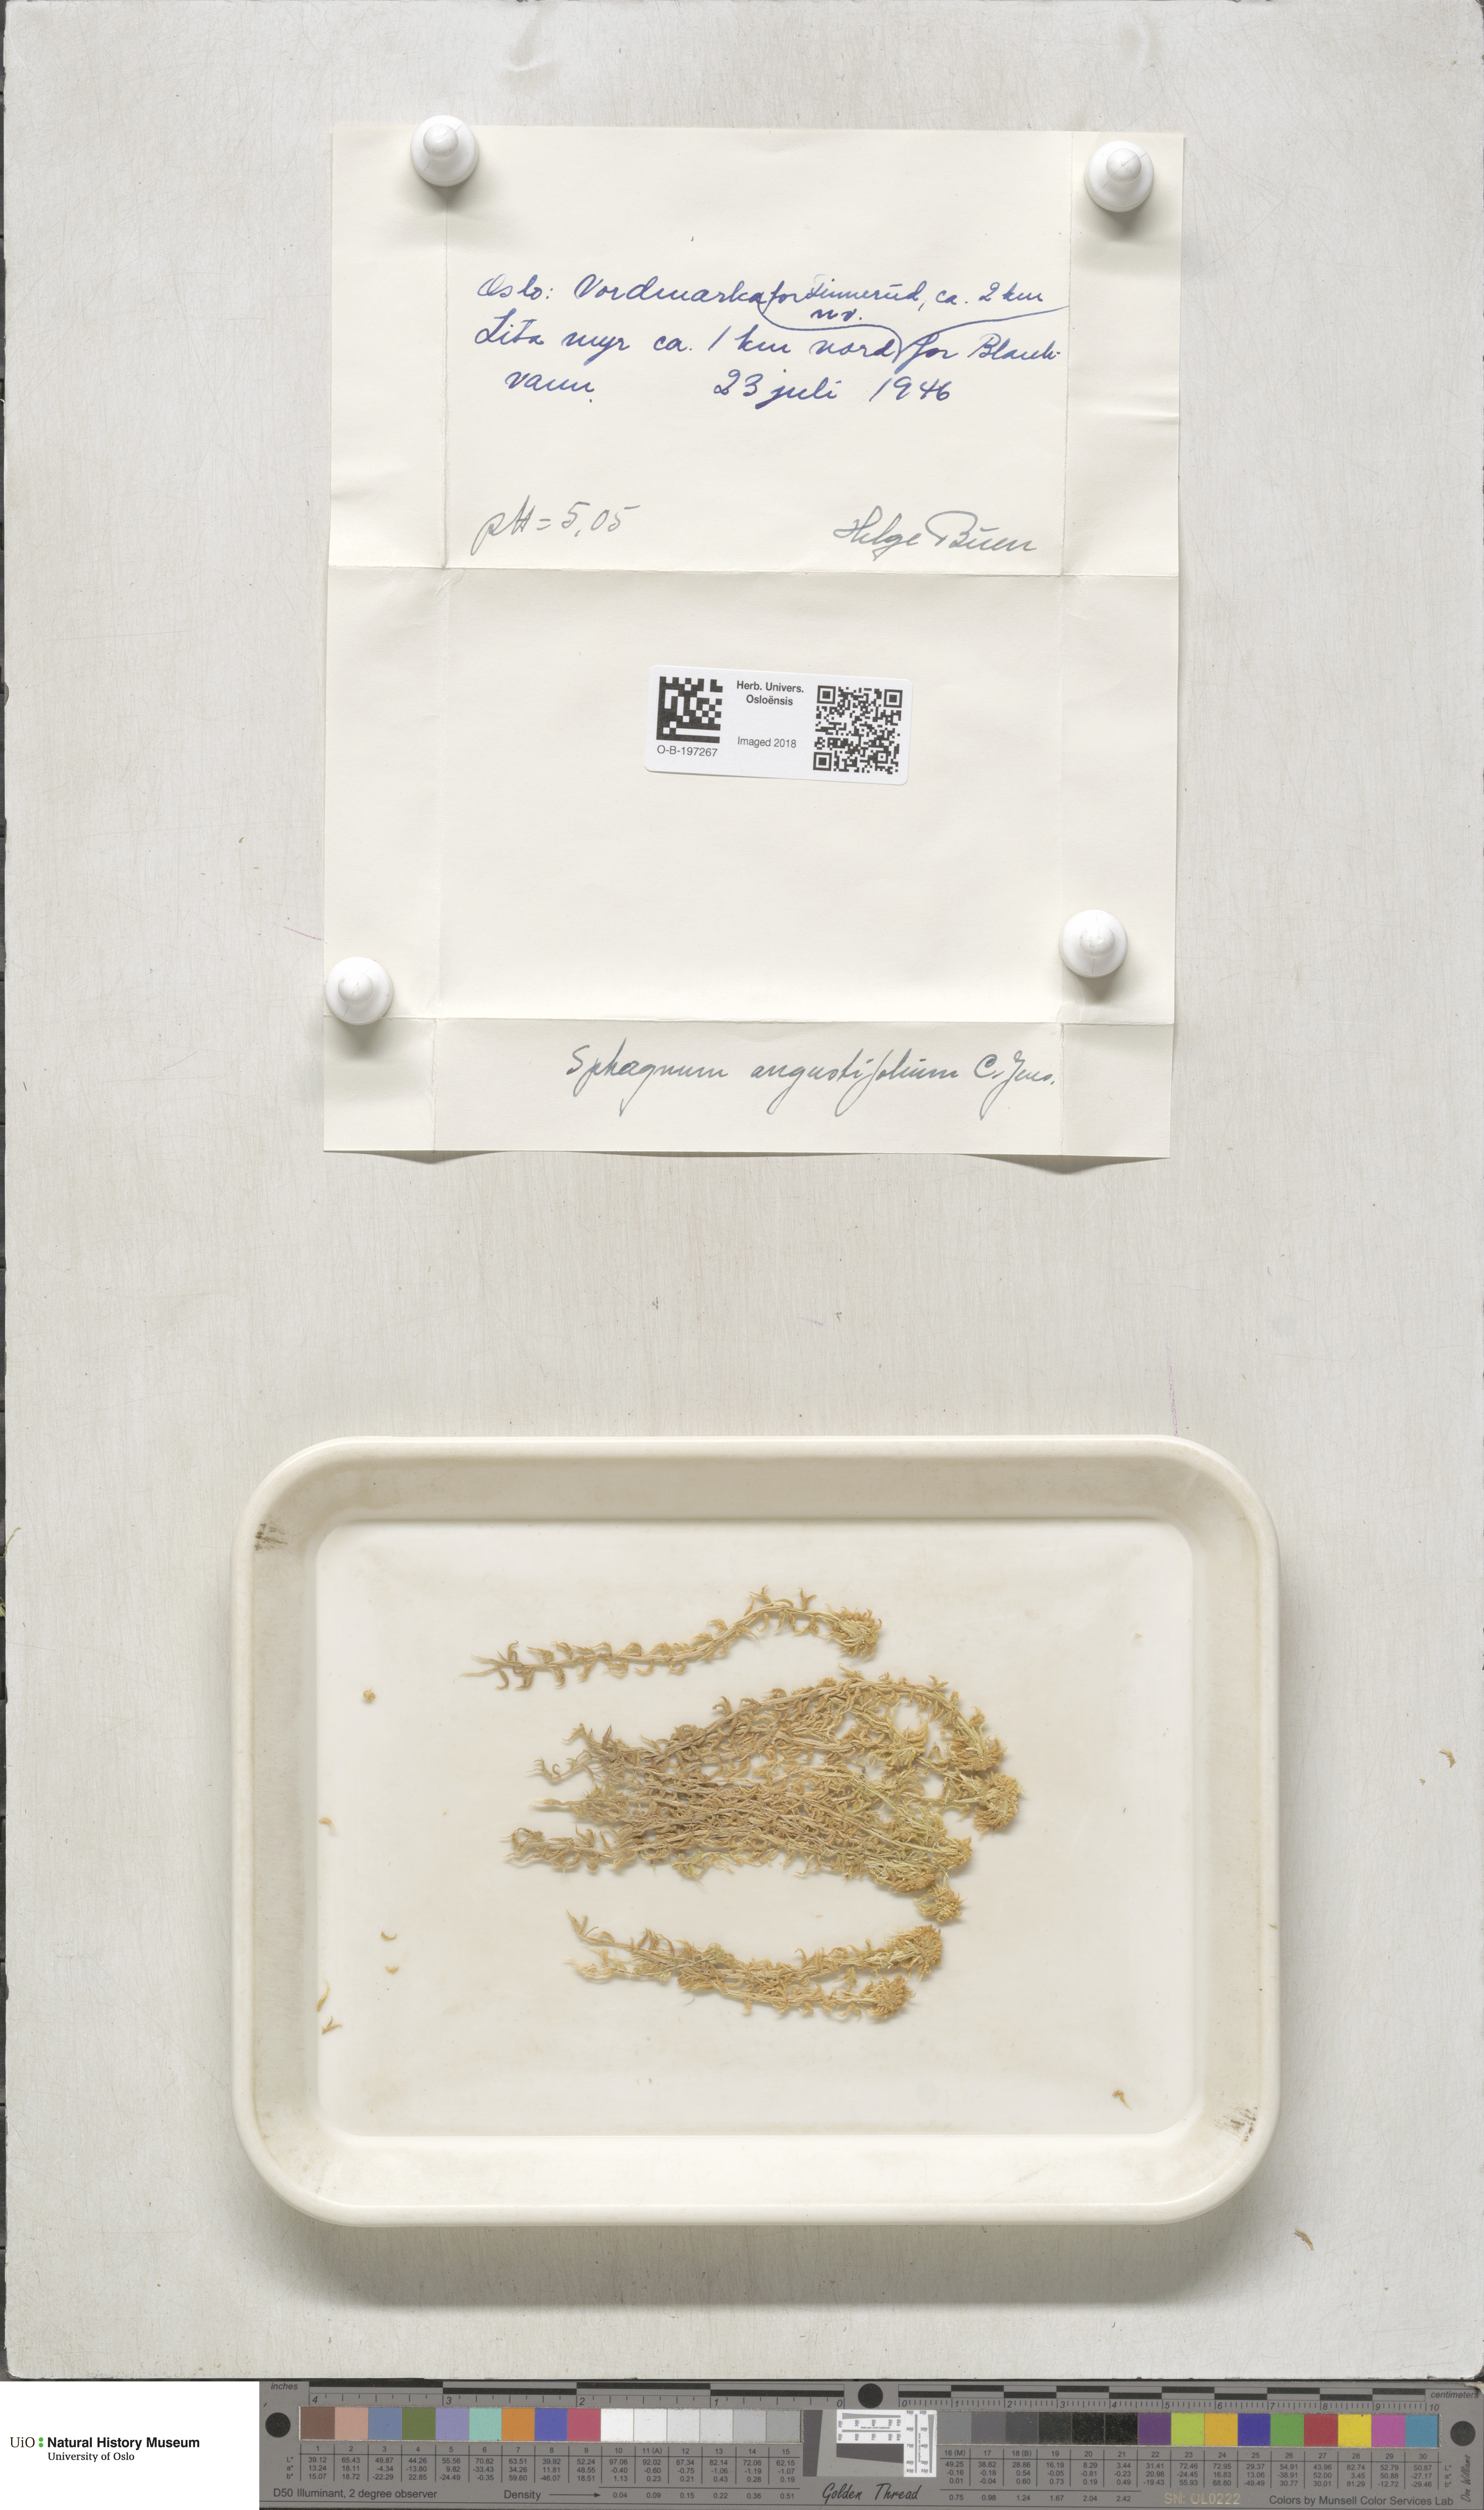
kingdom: Plantae
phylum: Bryophyta
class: Sphagnopsida
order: Sphagnales
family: Sphagnaceae
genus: Sphagnum
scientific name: Sphagnum angustifolium
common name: Narrow-leaved peat moss
